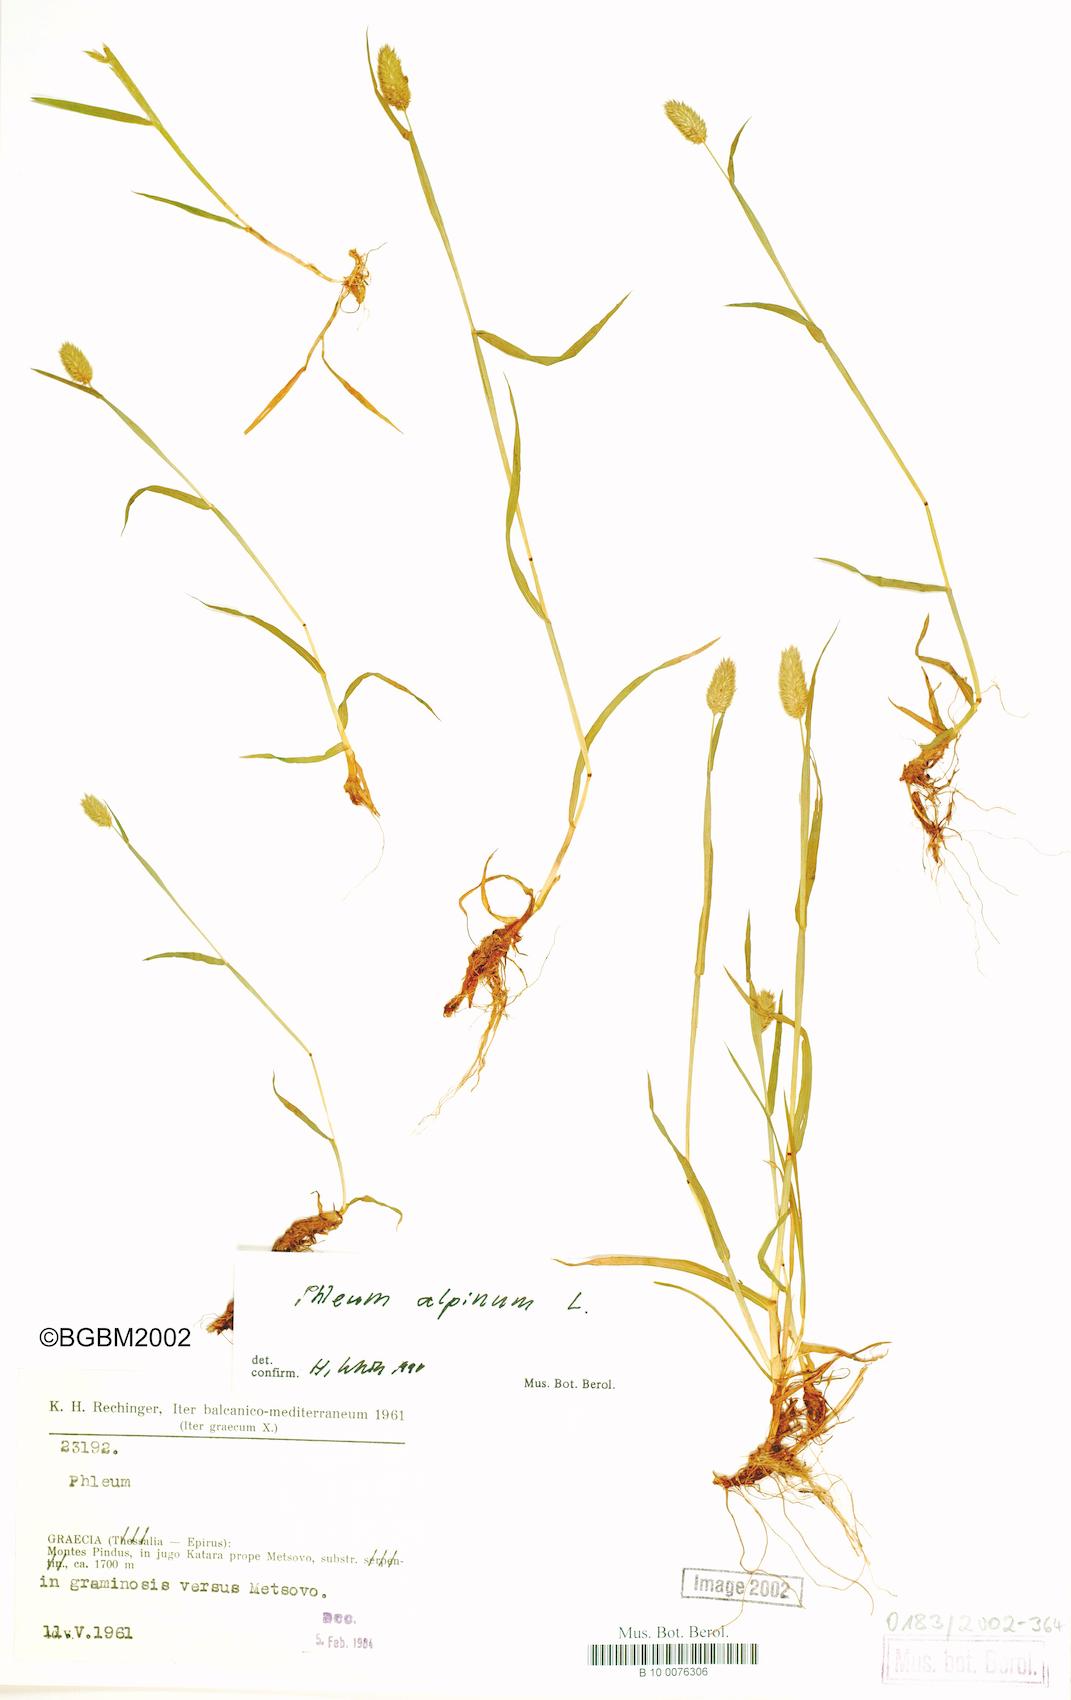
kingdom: Plantae
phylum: Tracheophyta
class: Liliopsida
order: Poales
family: Poaceae
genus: Phleum
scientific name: Phleum alpinum
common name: Alpine cat's-tail
